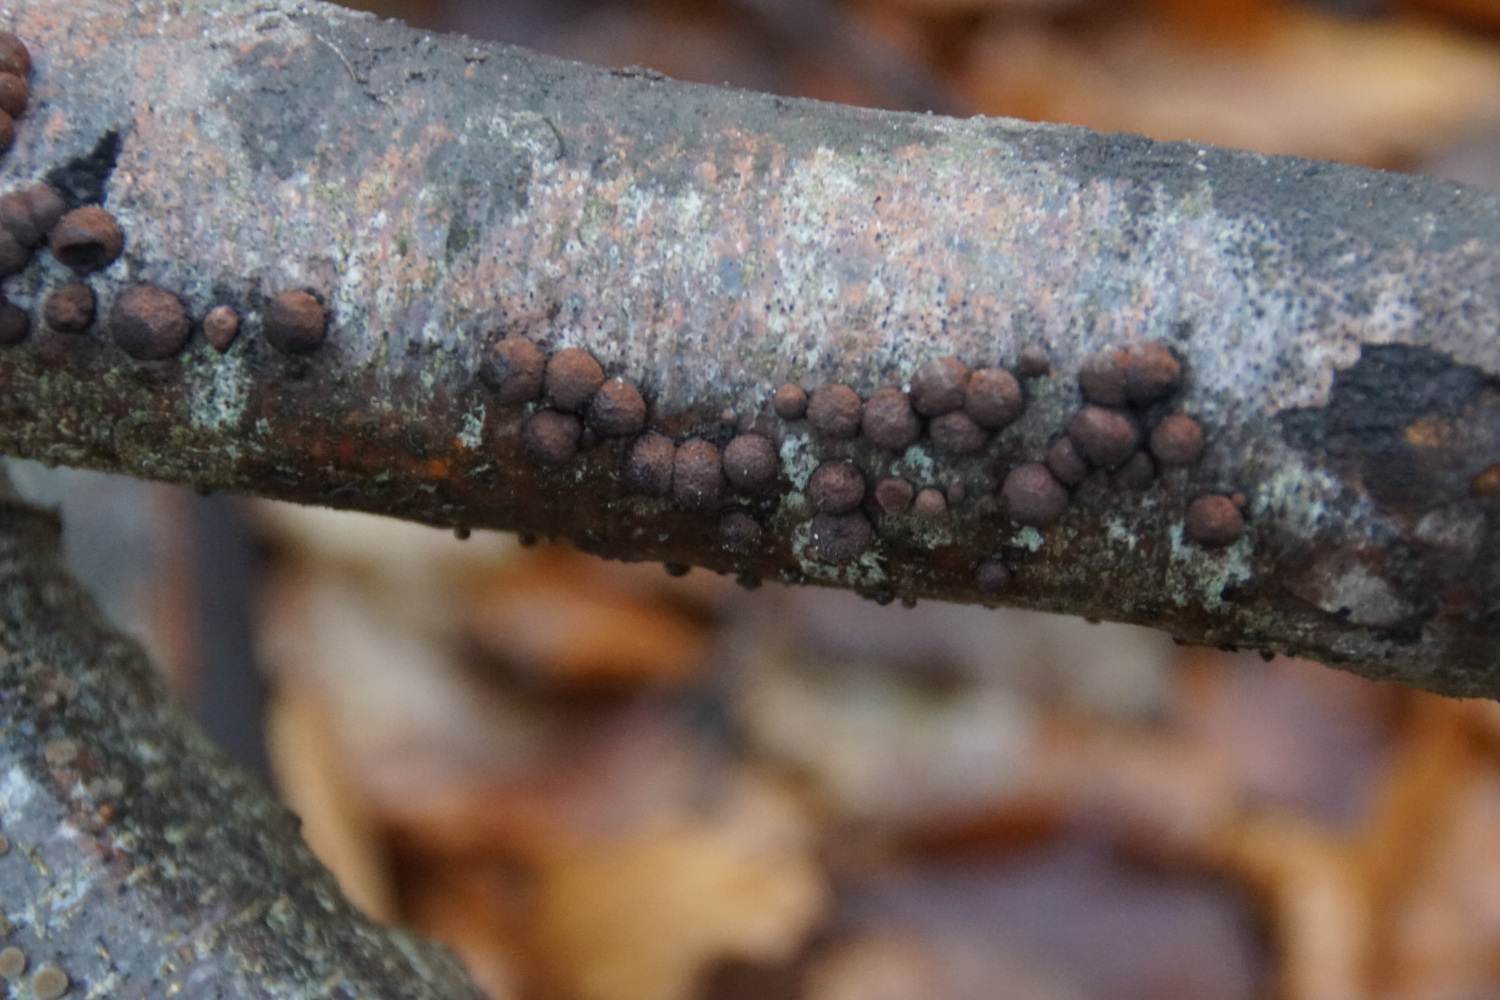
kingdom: Fungi
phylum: Ascomycota
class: Sordariomycetes
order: Xylariales
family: Hypoxylaceae
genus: Hypoxylon
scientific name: Hypoxylon fragiforme
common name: kuljordbær
